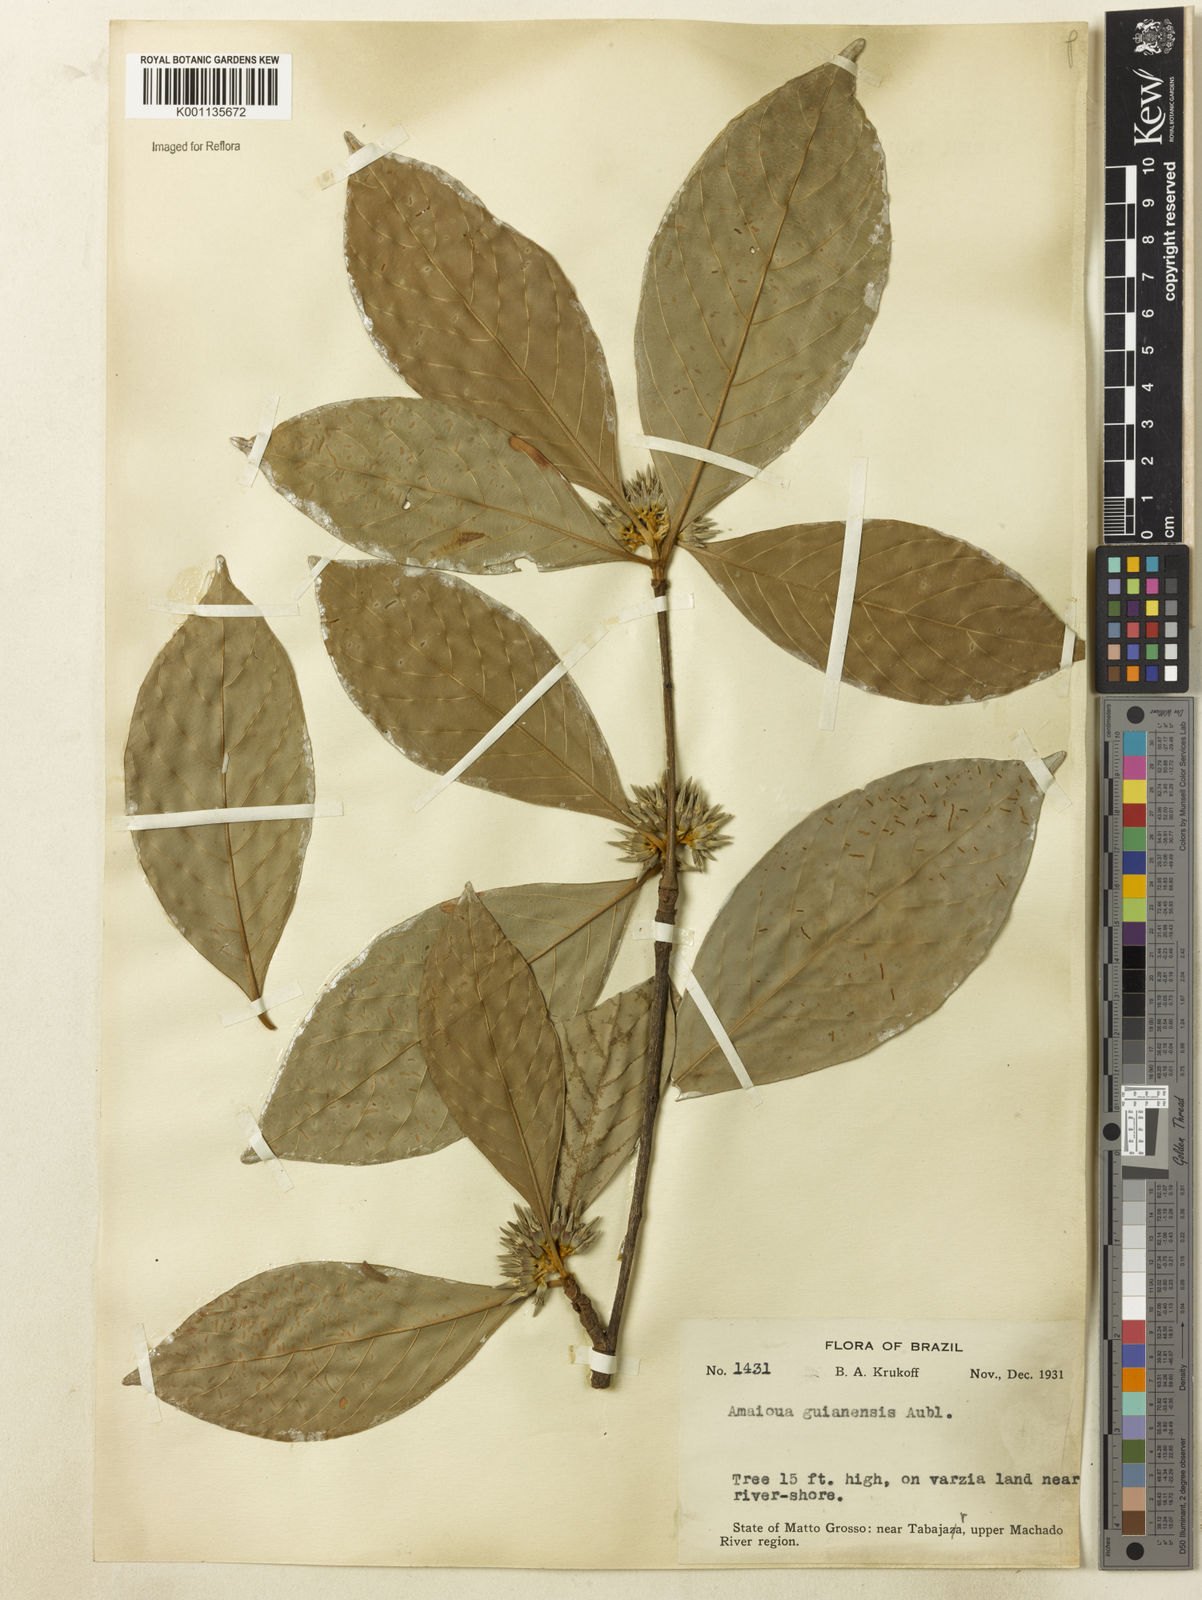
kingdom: Plantae
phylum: Tracheophyta
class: Magnoliopsida
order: Gentianales
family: Rubiaceae
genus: Amaioua
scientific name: Amaioua guianensis
